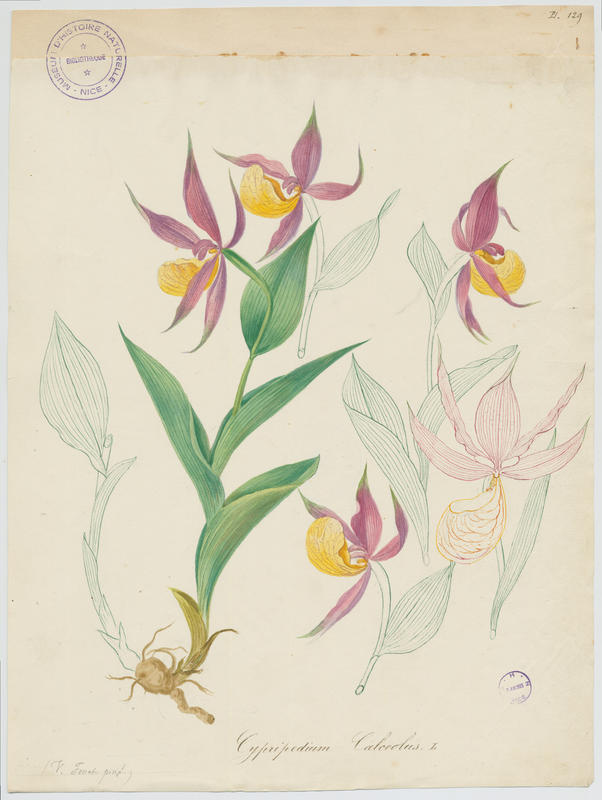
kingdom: Plantae
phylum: Tracheophyta
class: Liliopsida
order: Asparagales
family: Orchidaceae
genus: Cypripedium
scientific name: Cypripedium calceolus
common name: Lady's-slipper
